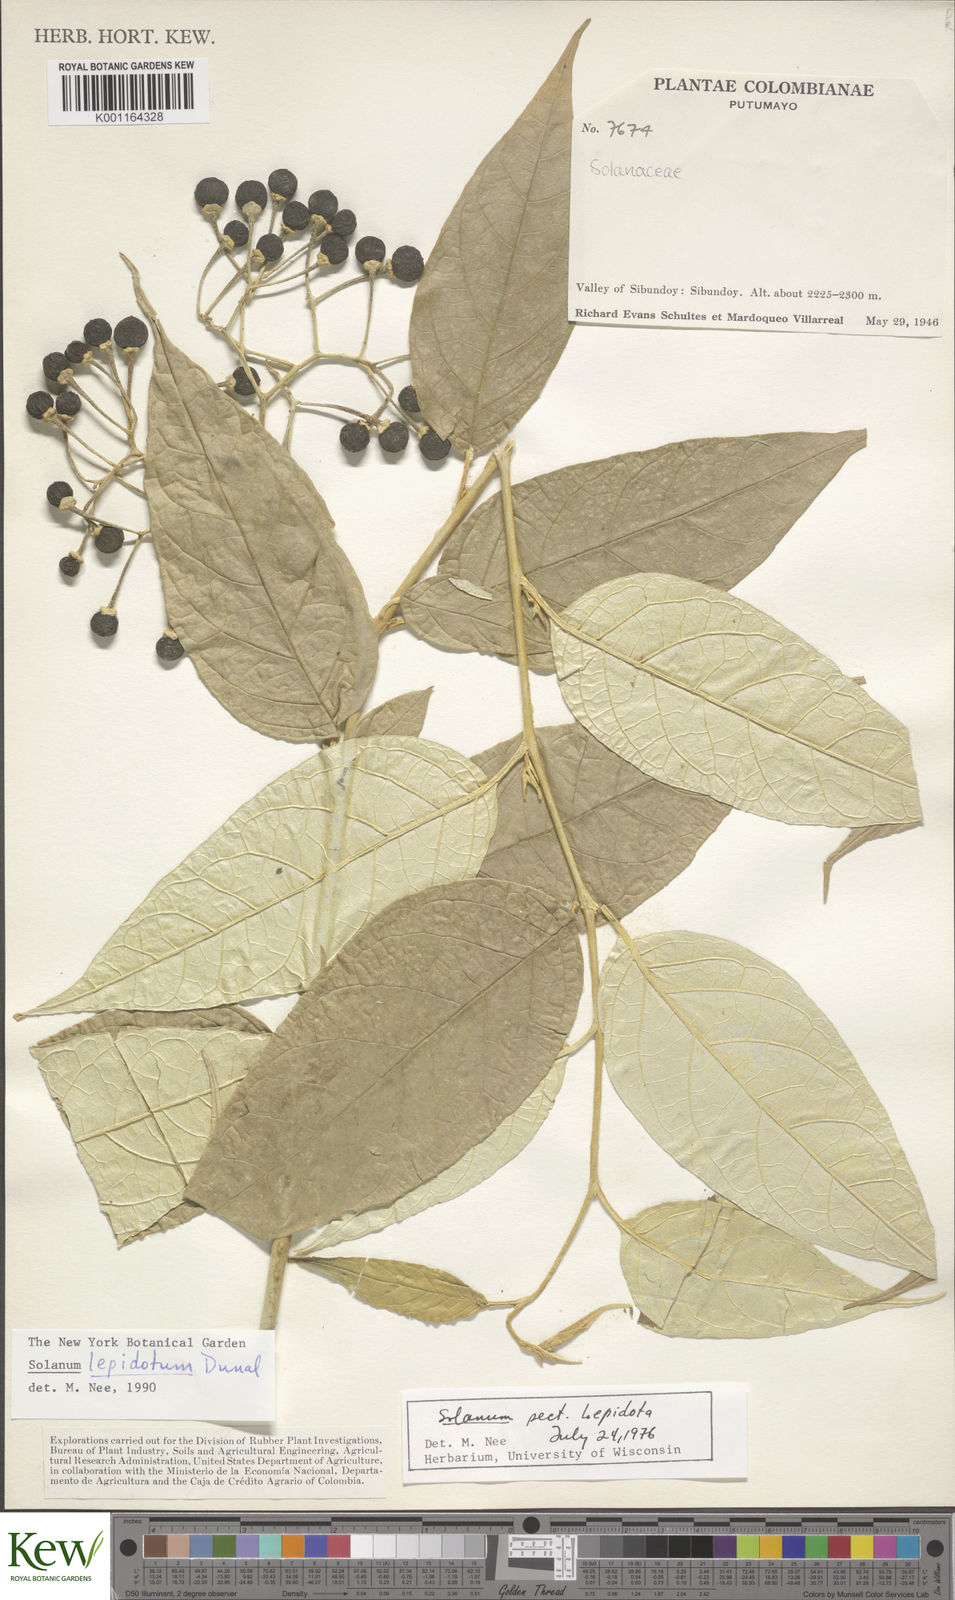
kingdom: Plantae
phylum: Tracheophyta
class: Magnoliopsida
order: Solanales
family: Solanaceae
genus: Solanum
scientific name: Solanum lepidotum
